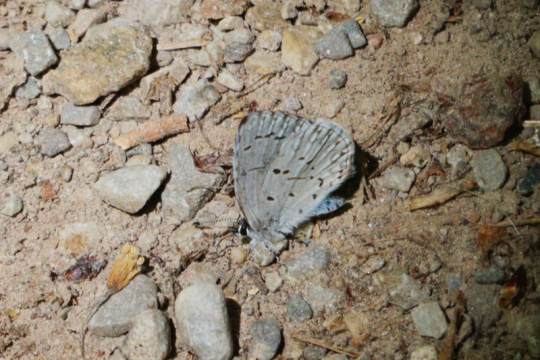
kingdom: Animalia
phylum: Arthropoda
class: Insecta
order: Lepidoptera
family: Lycaenidae
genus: Celastrina
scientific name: Celastrina lucia
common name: Northern Spring Azure
